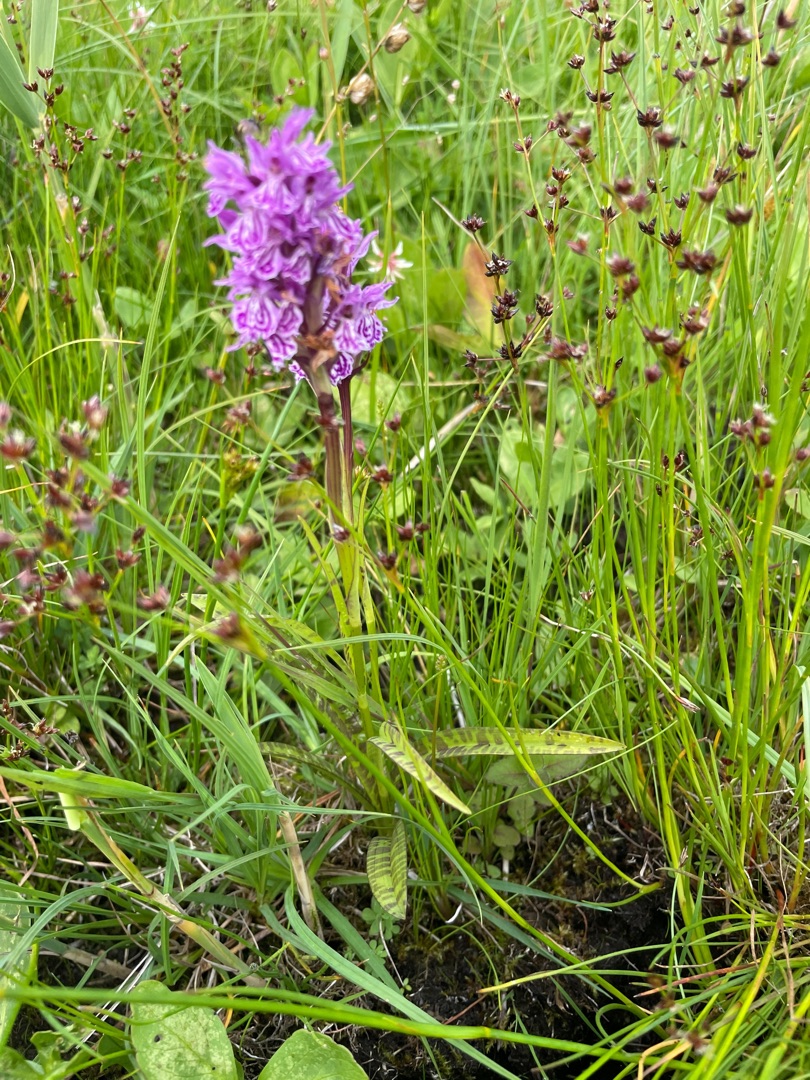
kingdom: Plantae
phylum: Tracheophyta
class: Liliopsida
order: Asparagales
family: Orchidaceae
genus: Dactylorhiza
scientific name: Dactylorhiza maculata
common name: Plettet gøgeurt
